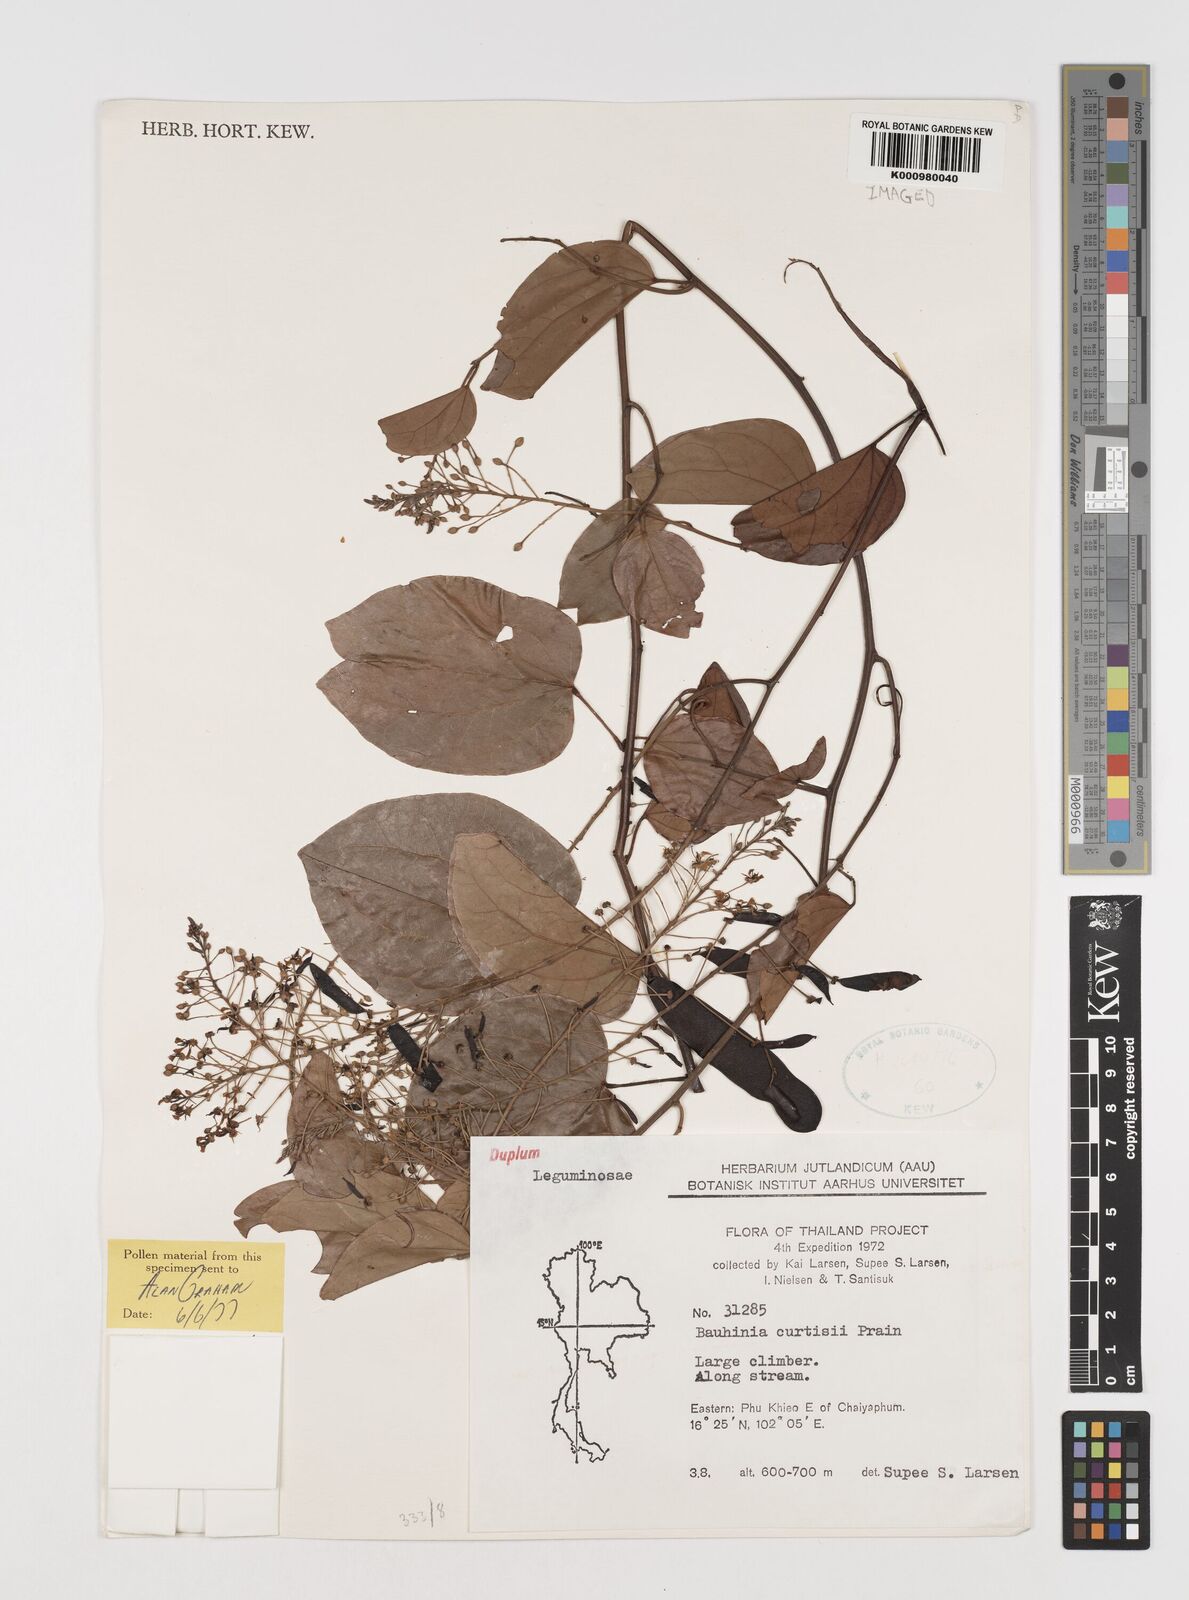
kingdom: Plantae
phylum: Tracheophyta
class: Magnoliopsida
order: Fabales
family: Fabaceae
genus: Phanera
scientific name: Phanera curtisii
